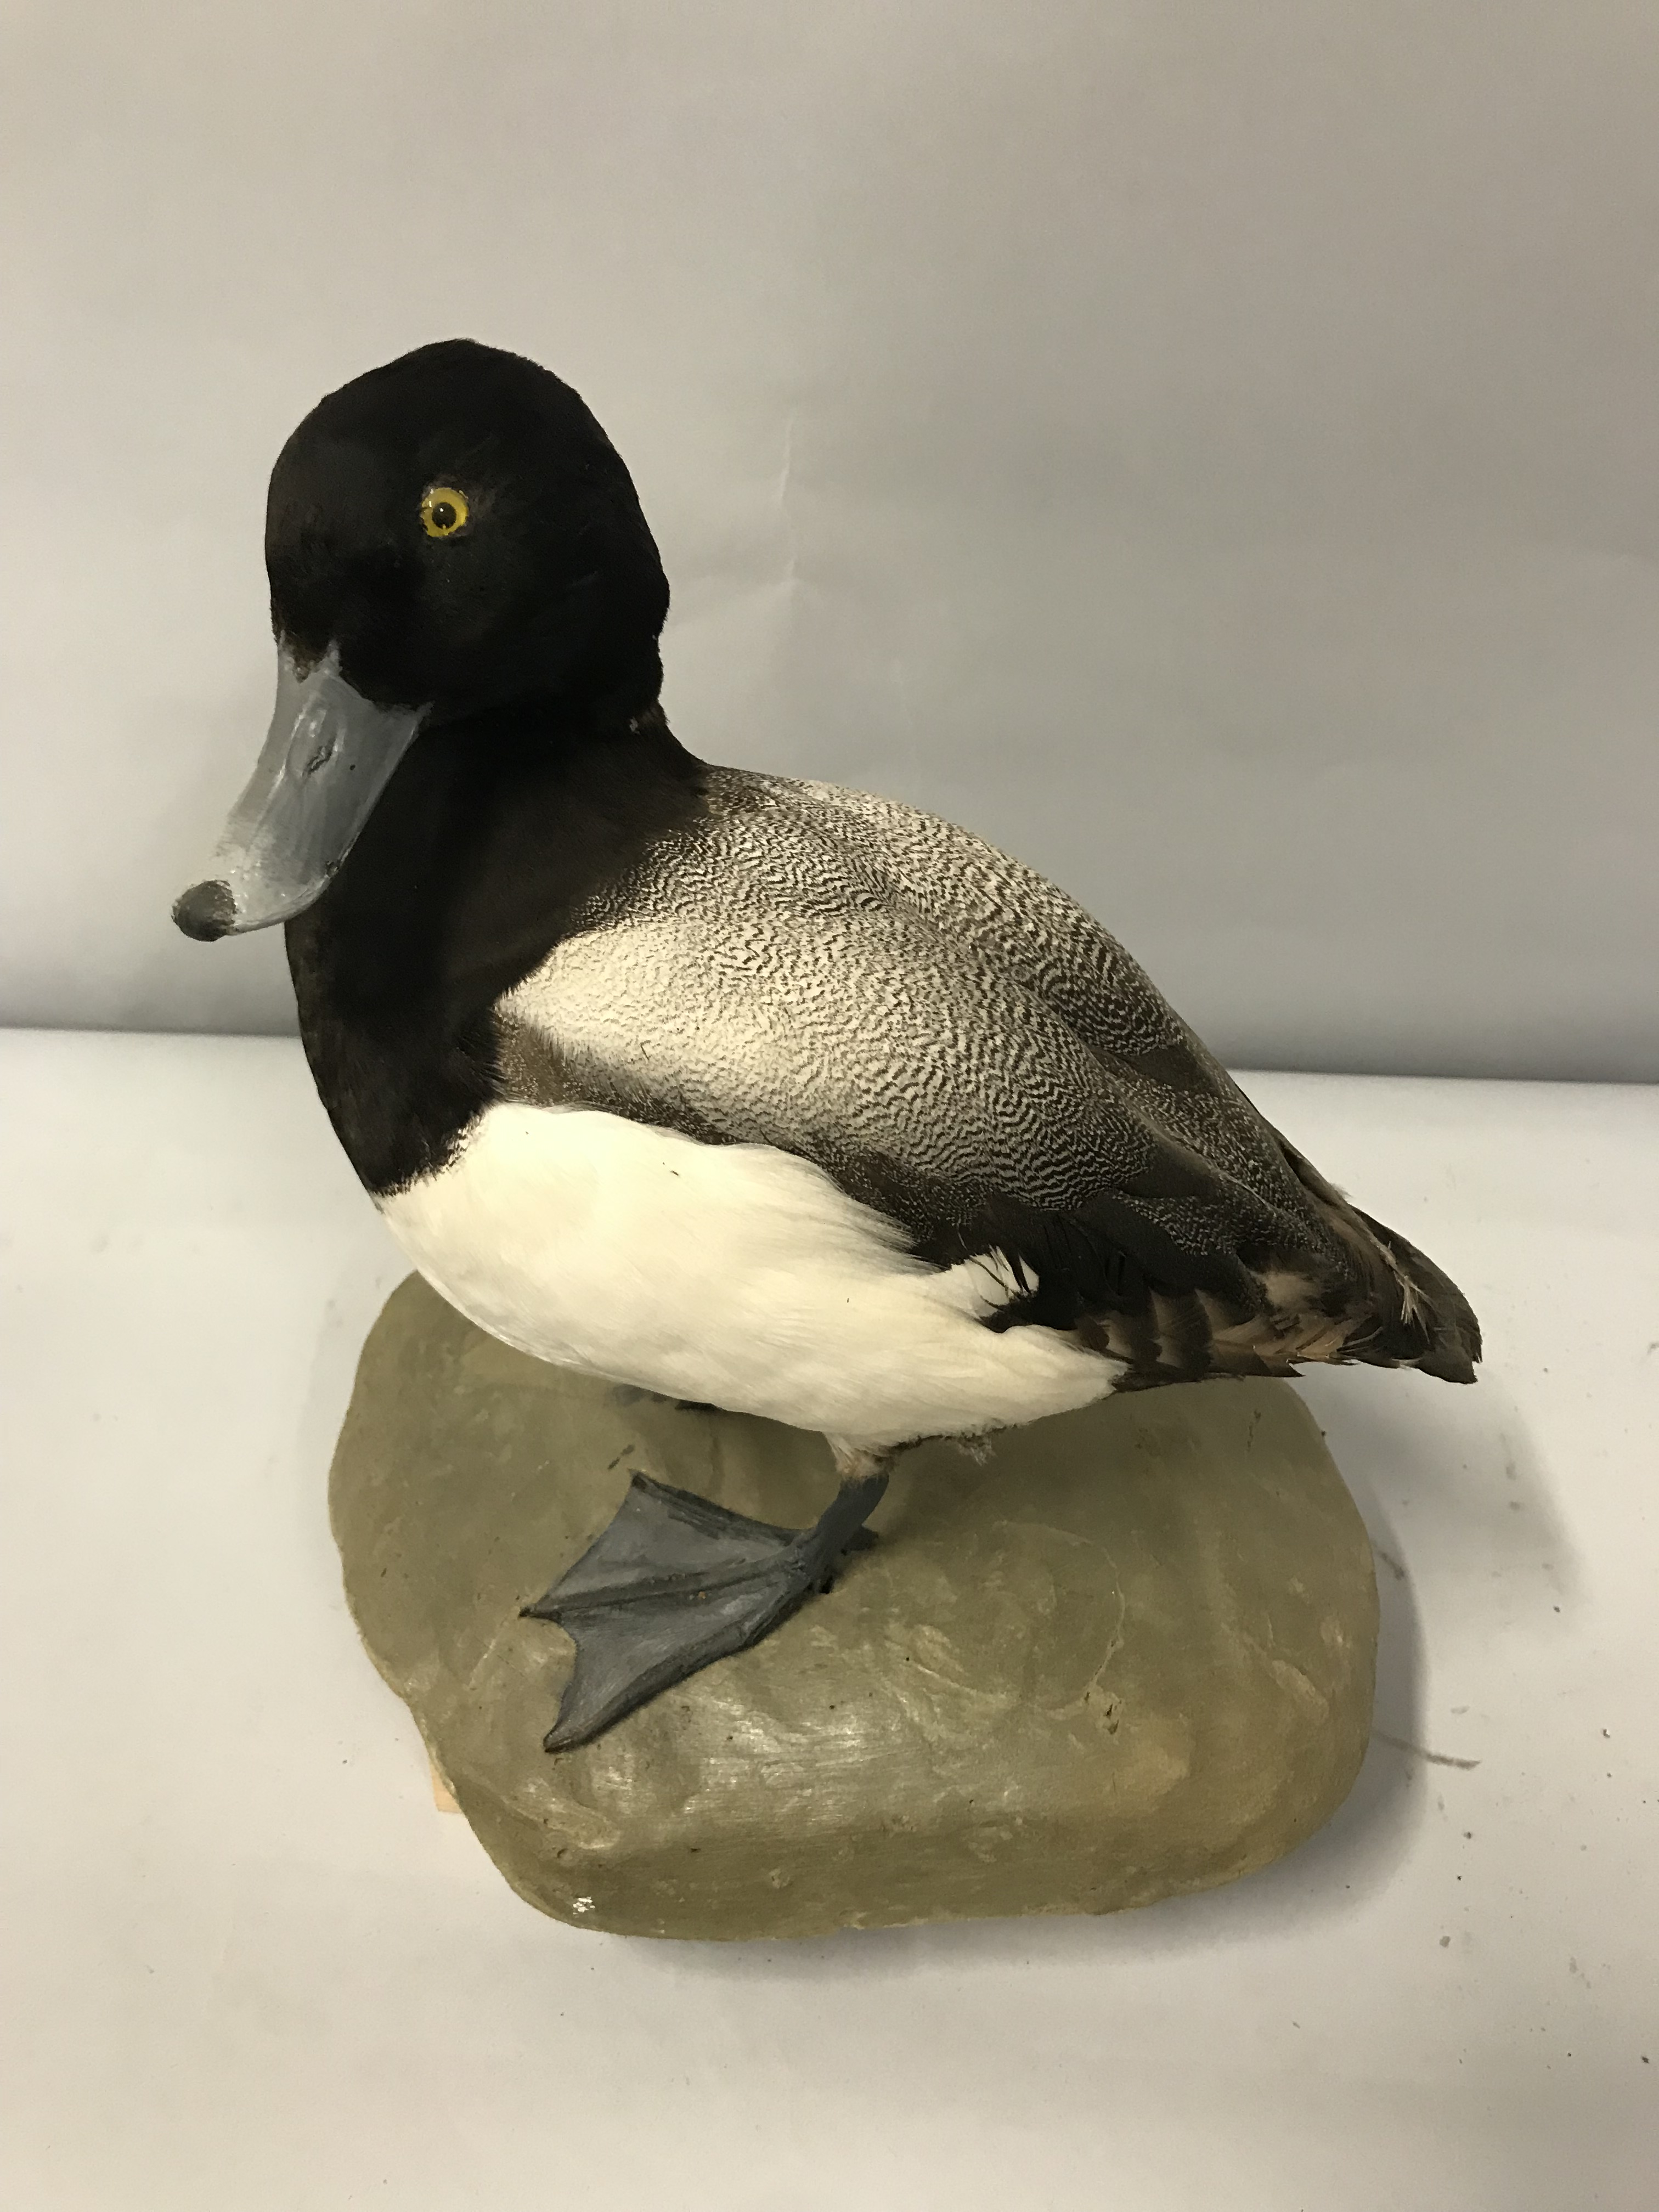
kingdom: Animalia
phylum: Chordata
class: Aves
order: Anseriformes
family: Anatidae
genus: Aythya
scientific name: Aythya marila
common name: Greater scaup
